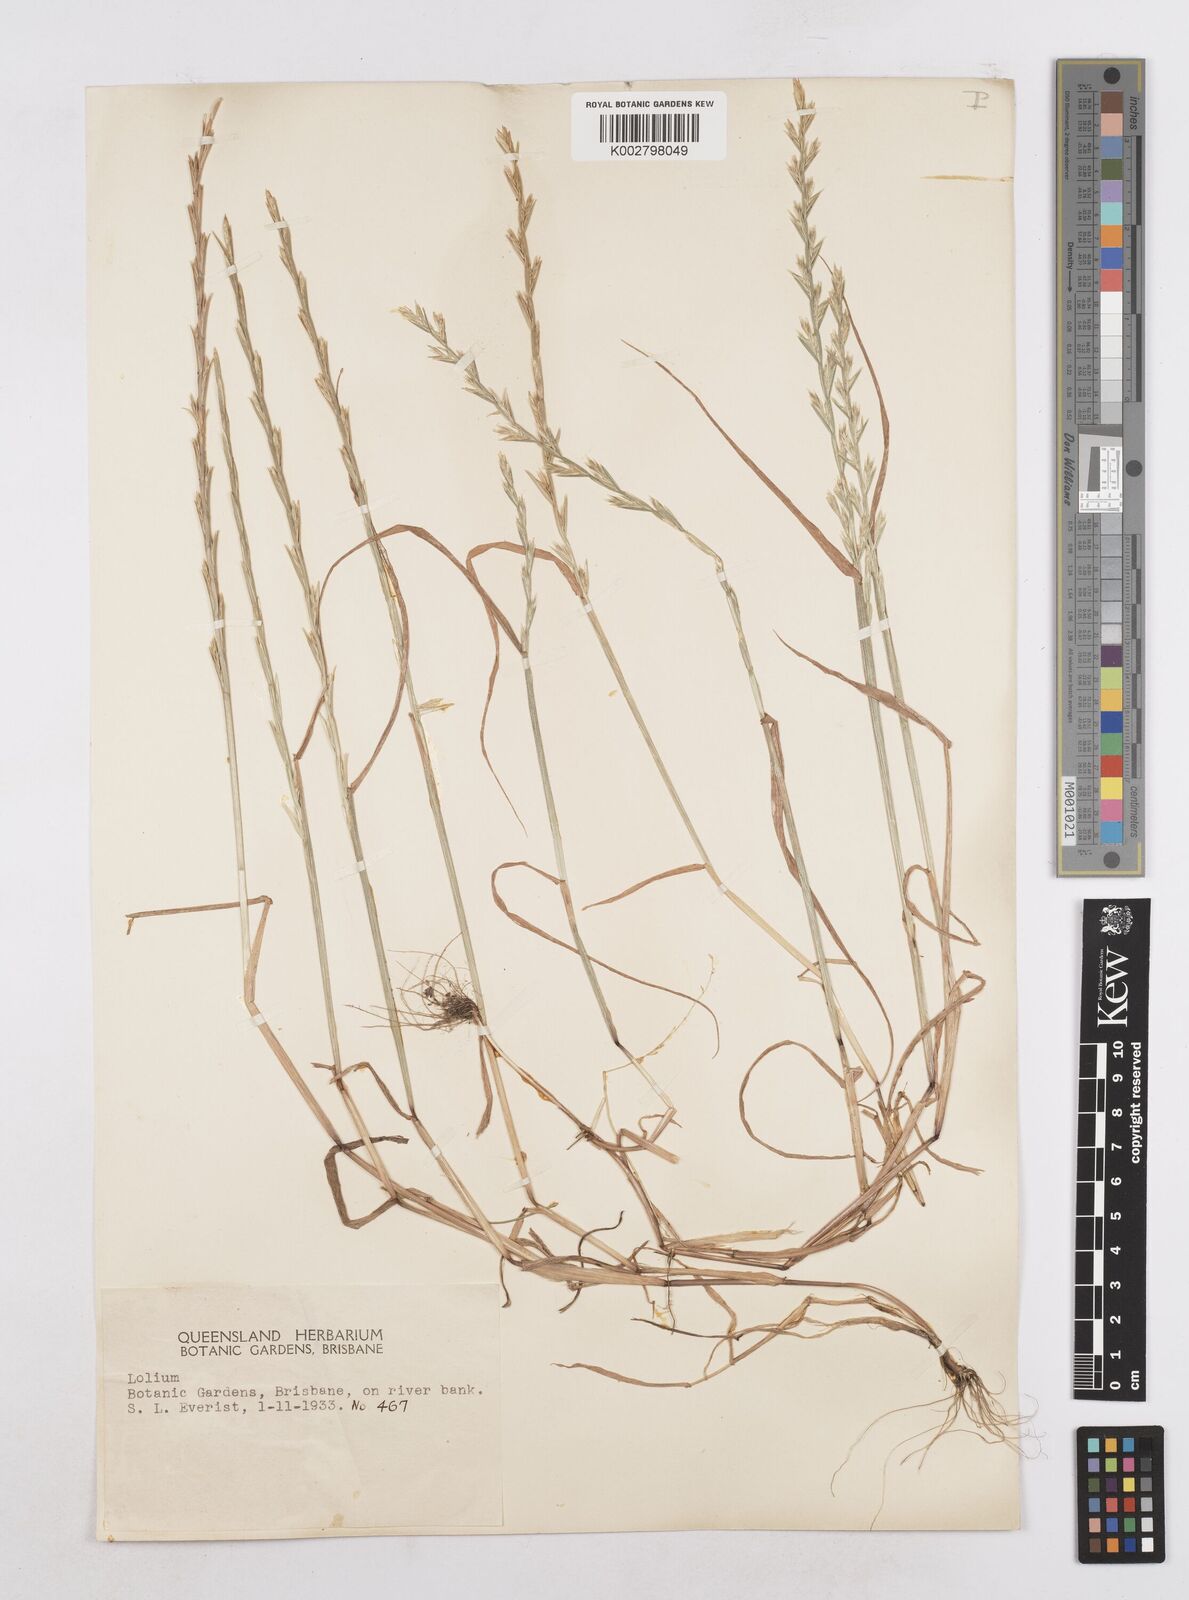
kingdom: Plantae
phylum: Tracheophyta
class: Liliopsida
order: Poales
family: Poaceae
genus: Lolium
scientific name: Lolium
